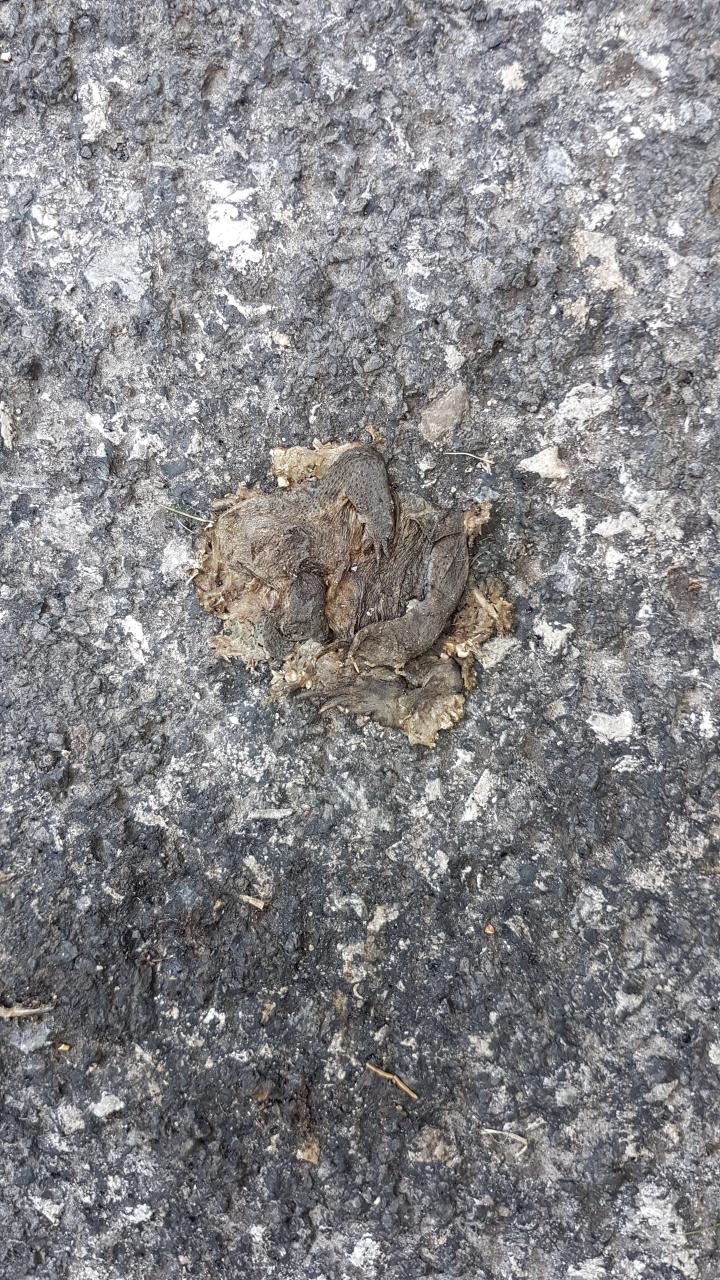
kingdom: Animalia
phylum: Chordata
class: Amphibia
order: Anura
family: Bufonidae
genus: Bufo
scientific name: Bufo bufo
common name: Common toad
